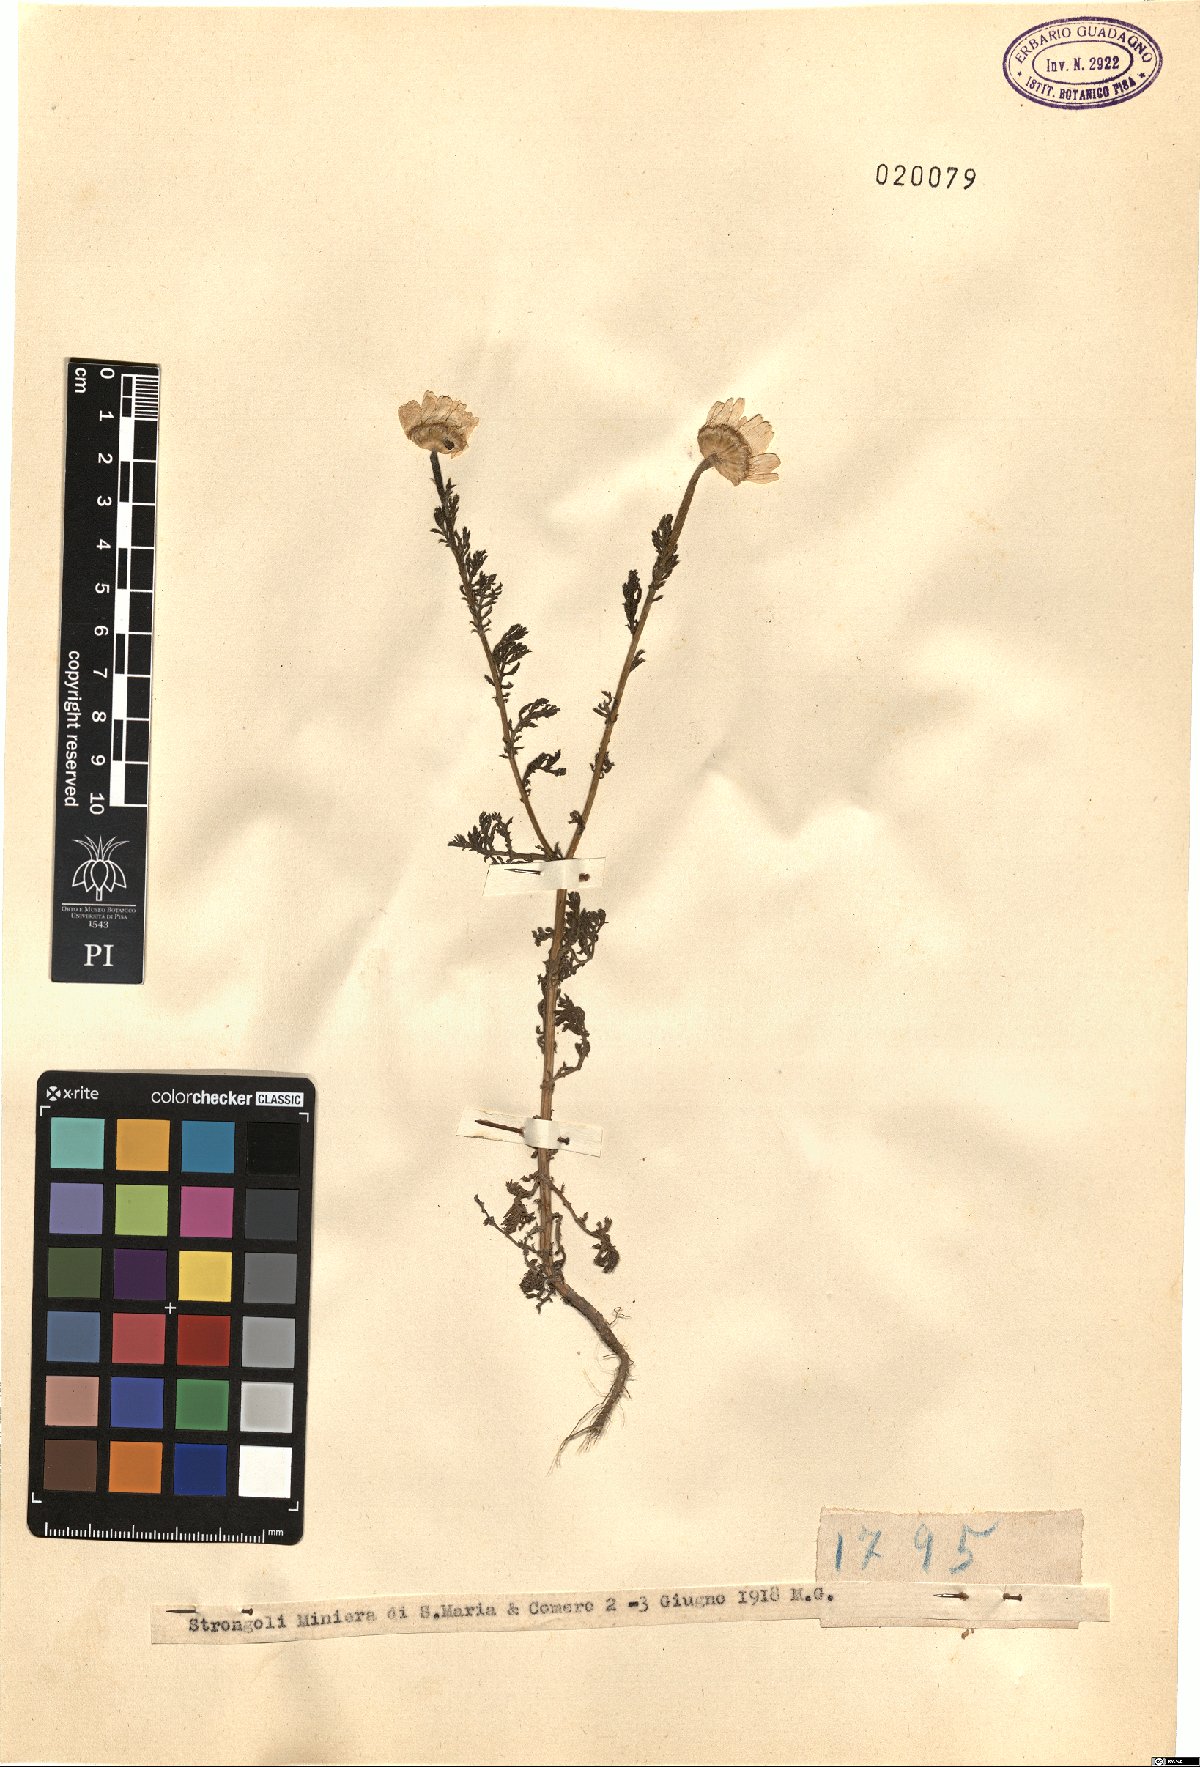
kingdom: Plantae
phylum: Tracheophyta
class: Magnoliopsida
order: Asterales
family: Asteraceae
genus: Anthemis
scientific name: Anthemis
